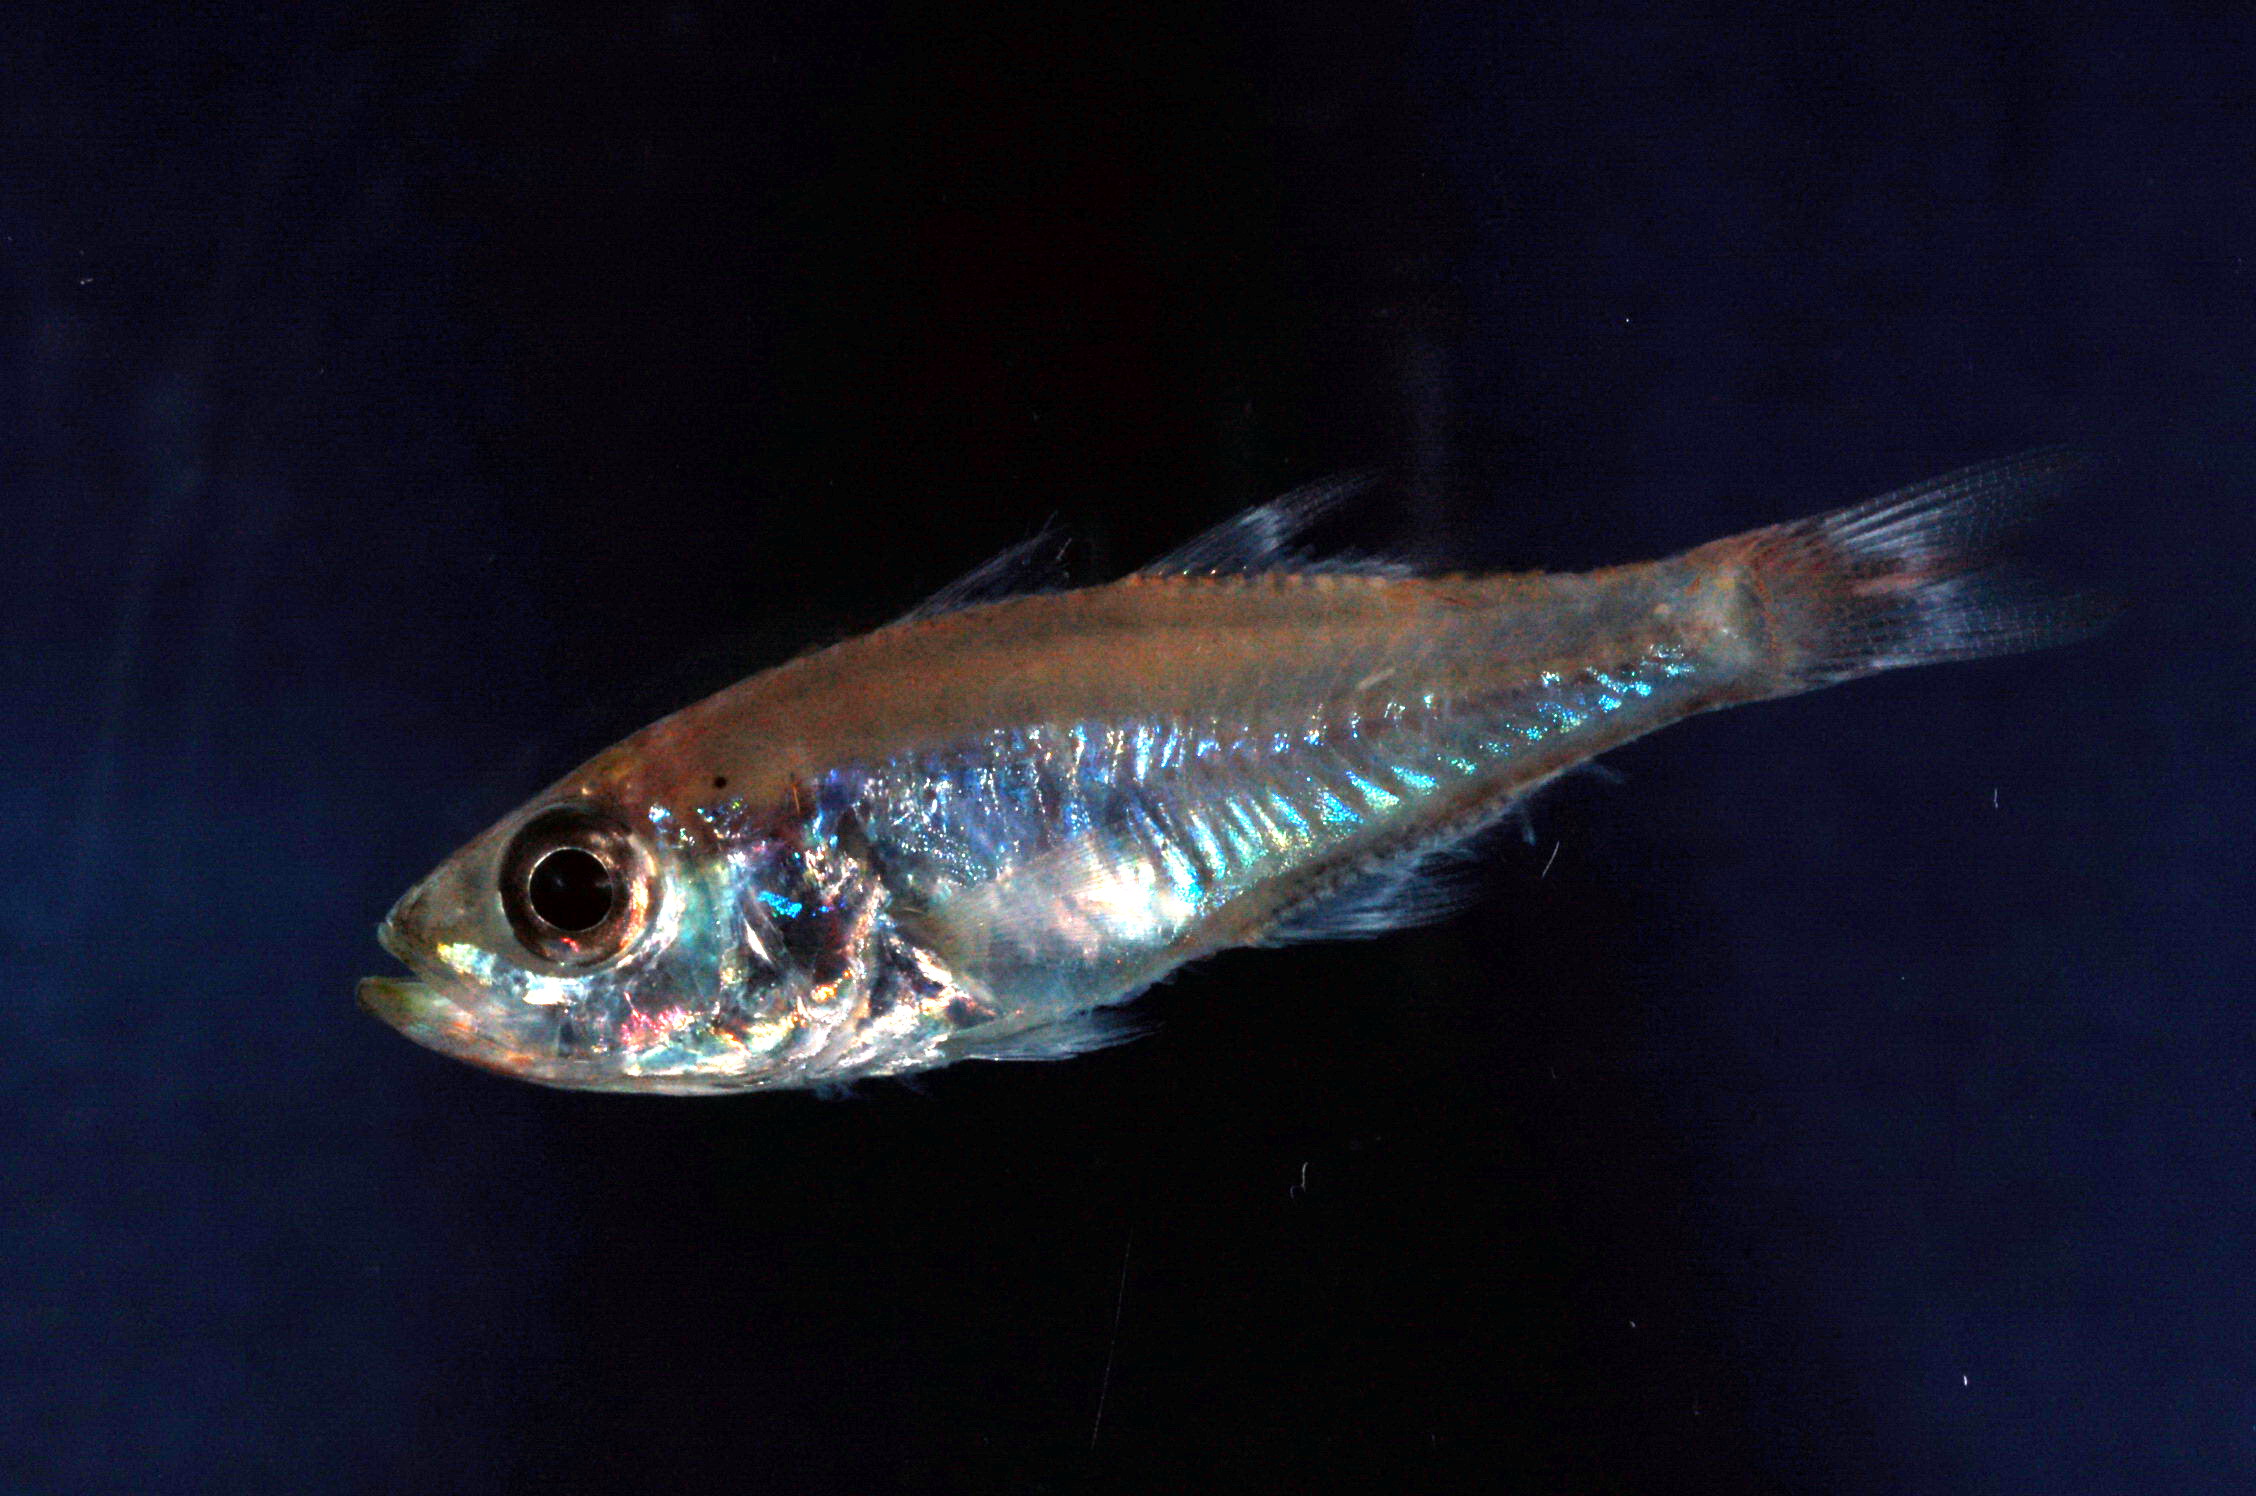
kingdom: Animalia
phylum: Chordata
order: Perciformes
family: Apogonidae
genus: Rhabdamia
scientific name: Rhabdamia gracilis
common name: Luminous cardinalfish
